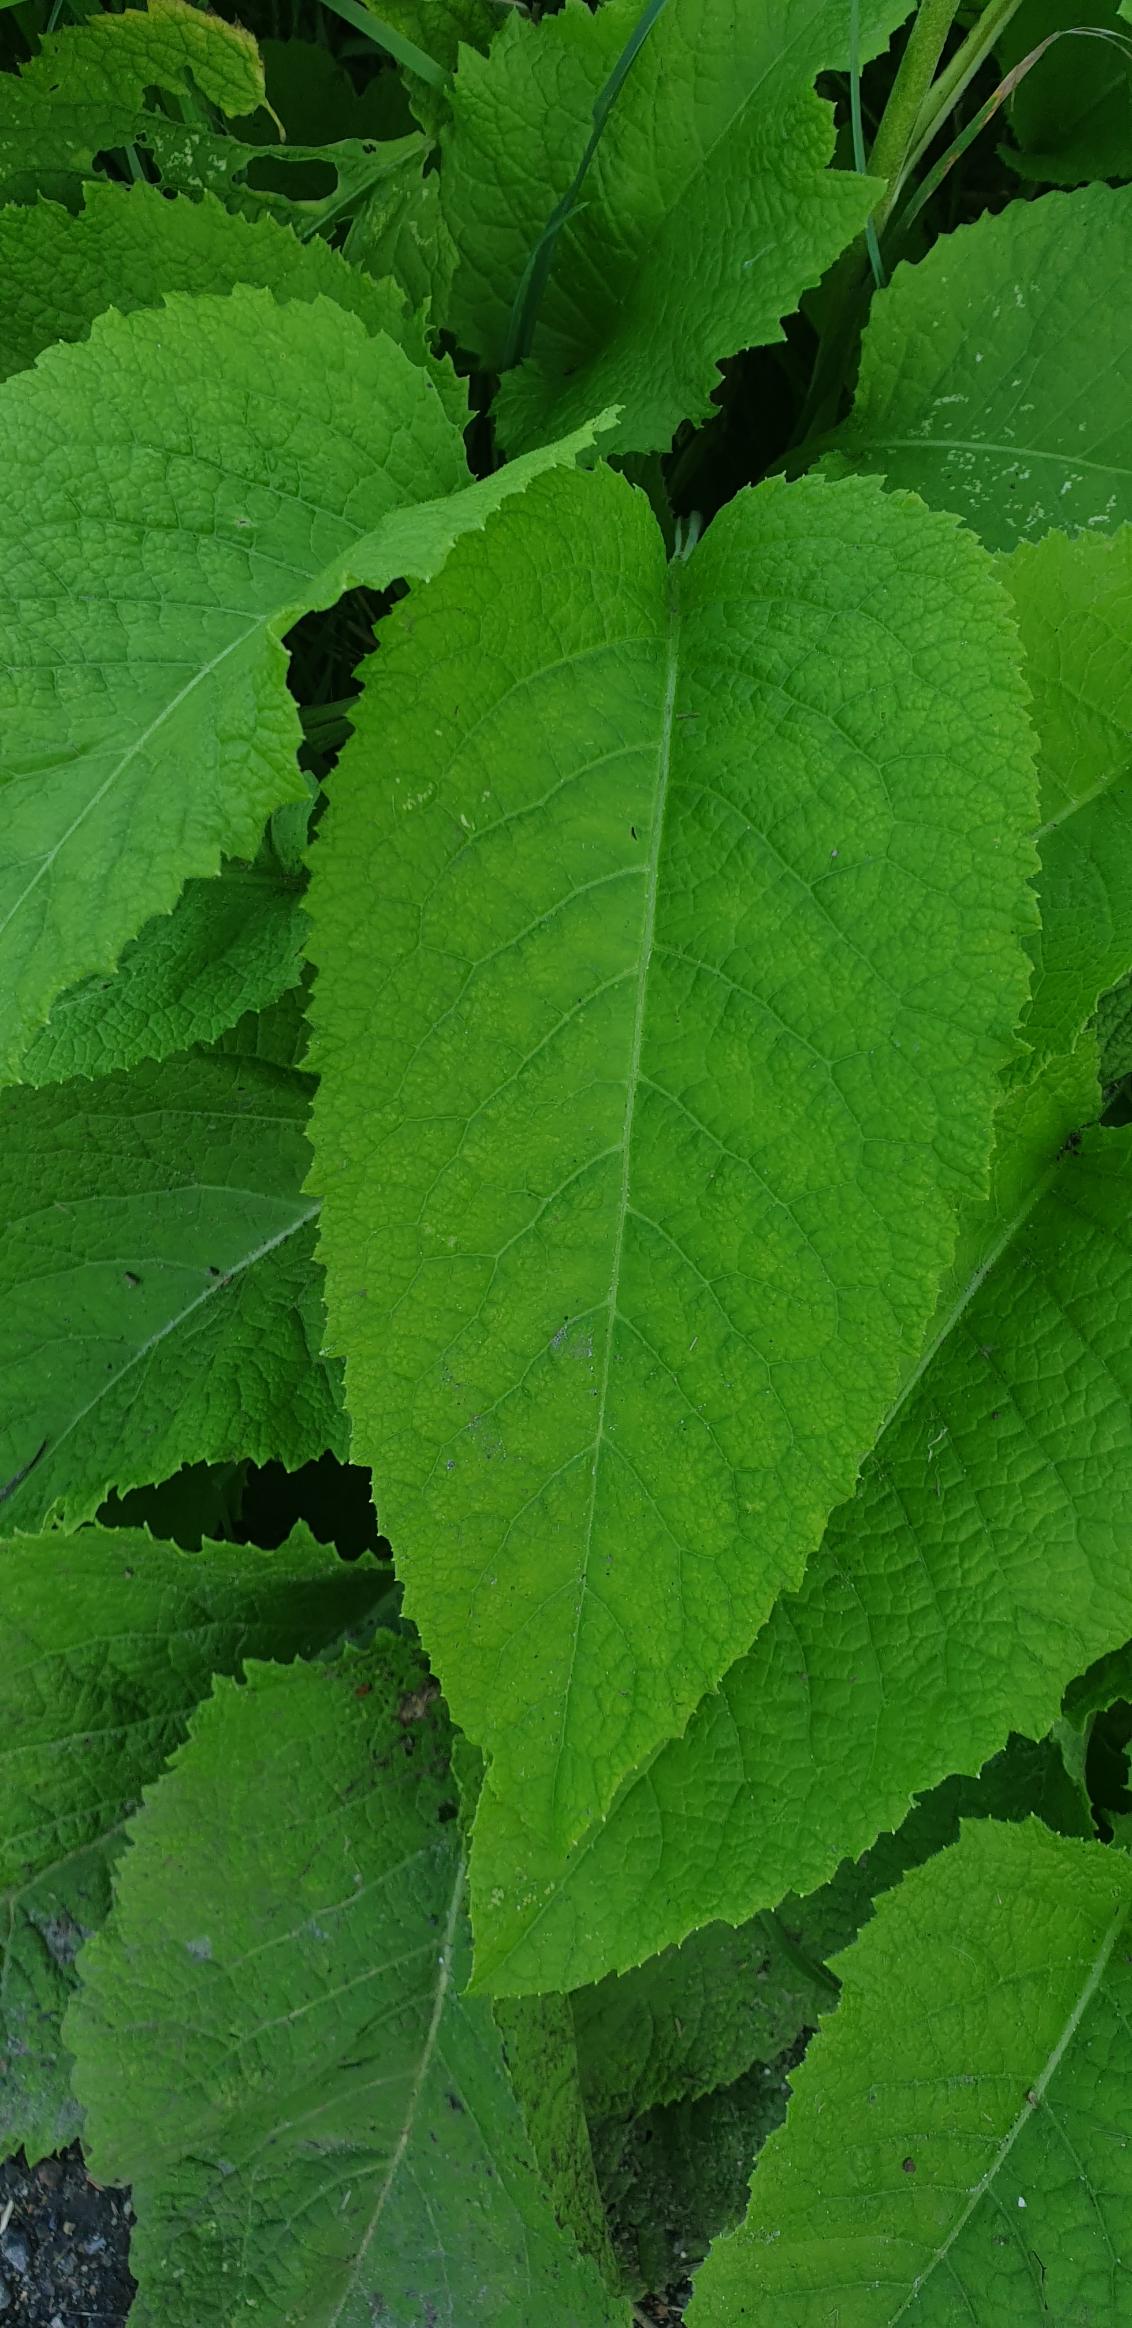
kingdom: Plantae
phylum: Tracheophyta
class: Magnoliopsida
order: Asterales
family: Asteraceae
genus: Telekia
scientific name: Telekia speciosa
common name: Tusindstråle
